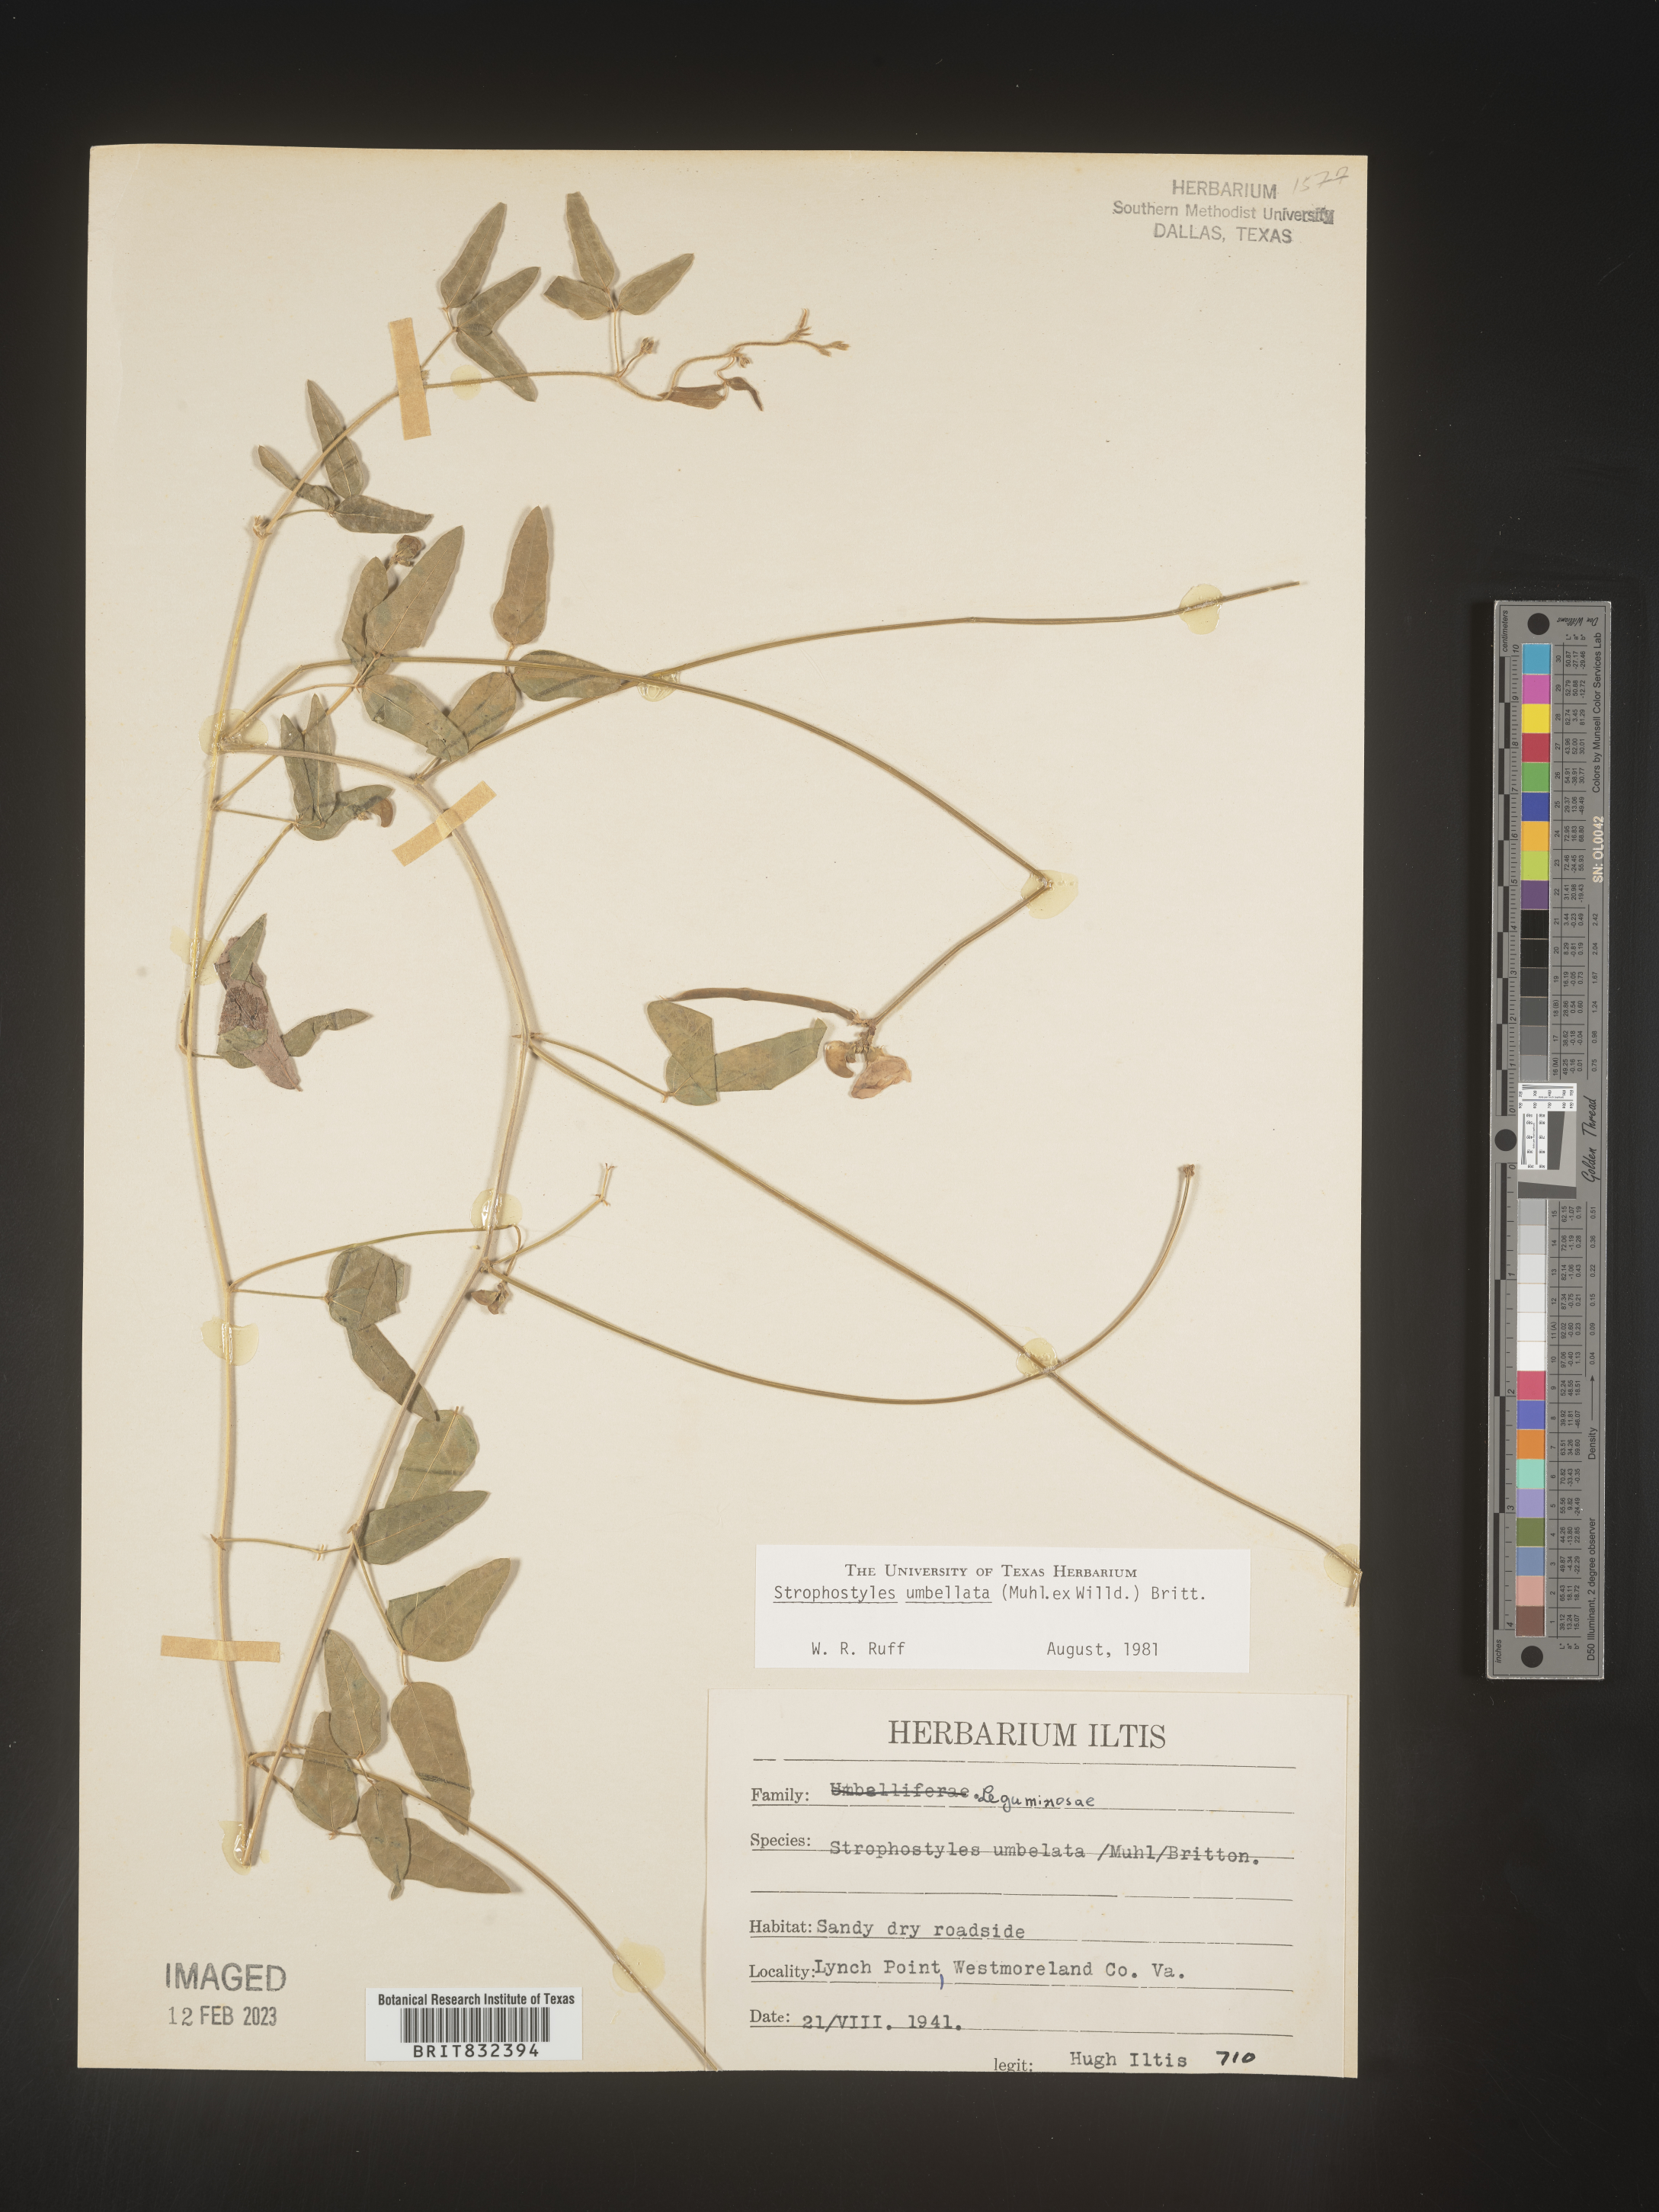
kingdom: Plantae
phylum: Tracheophyta
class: Magnoliopsida
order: Fabales
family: Fabaceae
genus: Strophostyles
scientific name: Strophostyles umbellata
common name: Perennial wild bean
